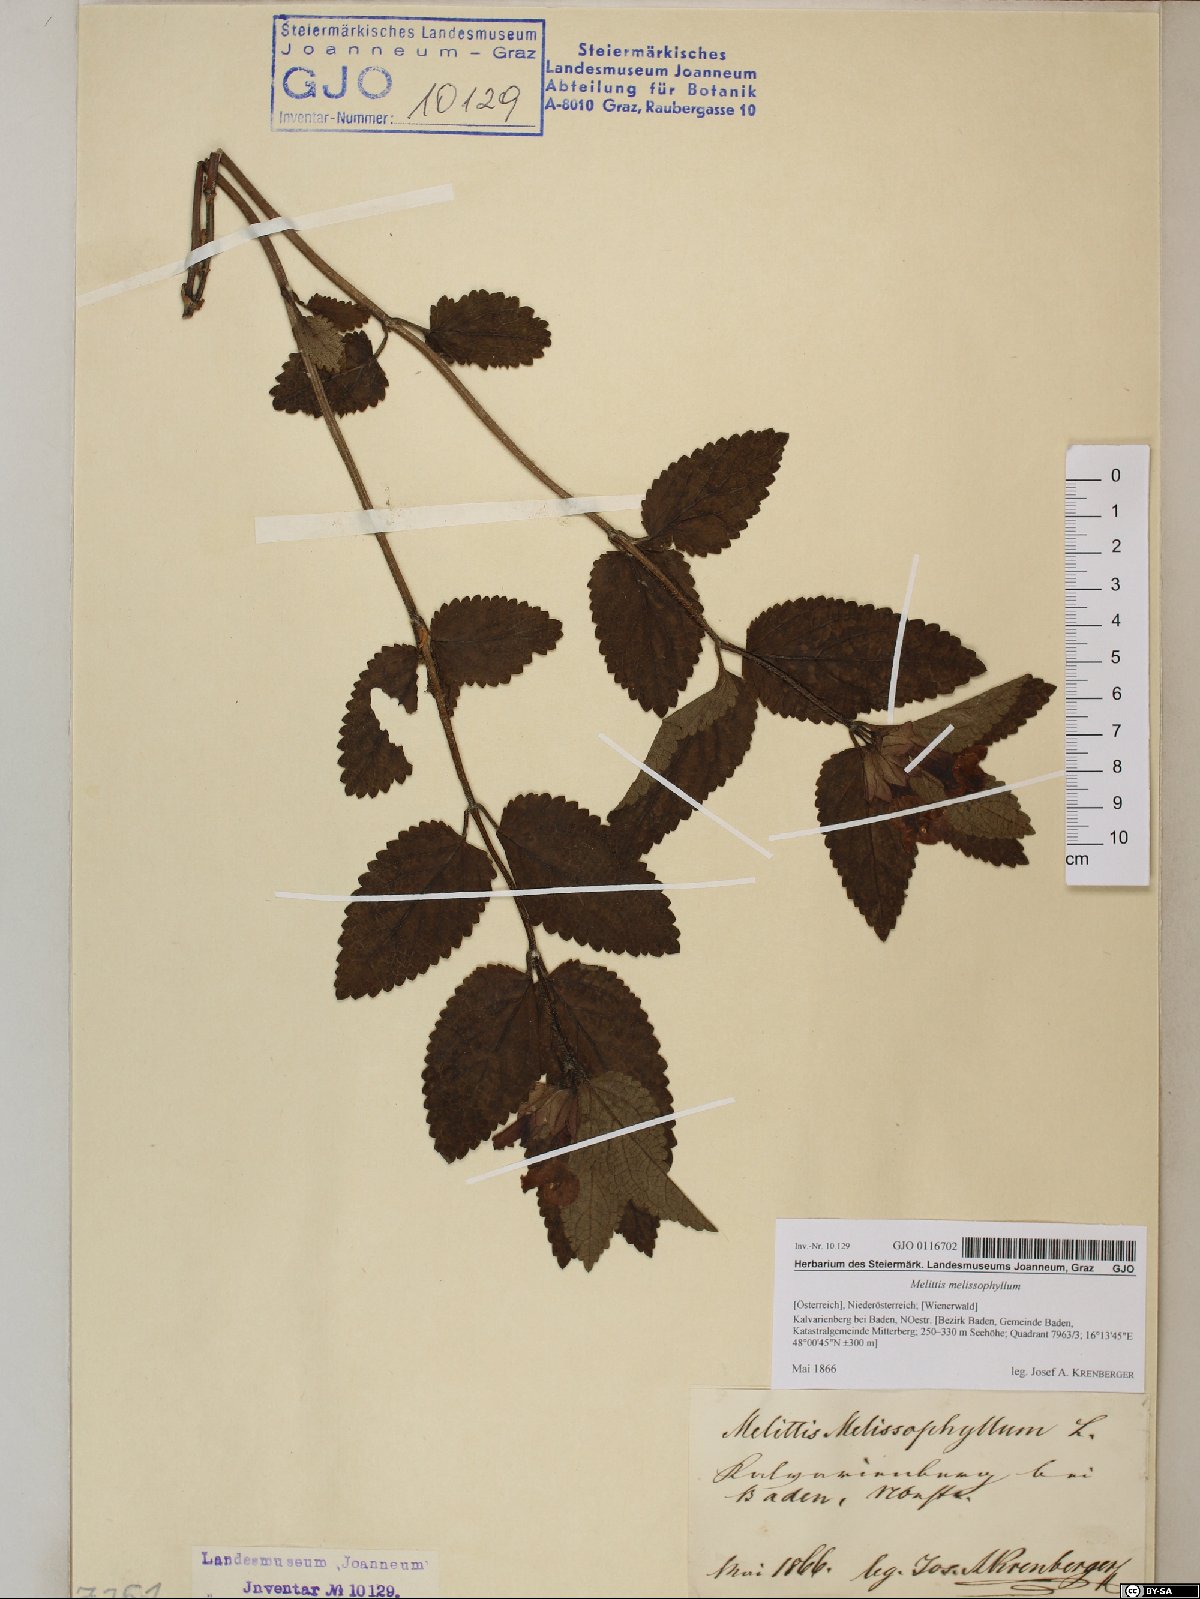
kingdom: Plantae
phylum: Tracheophyta
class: Magnoliopsida
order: Lamiales
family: Lamiaceae
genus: Melittis
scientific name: Melittis melissophyllum
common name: Bastard balm
